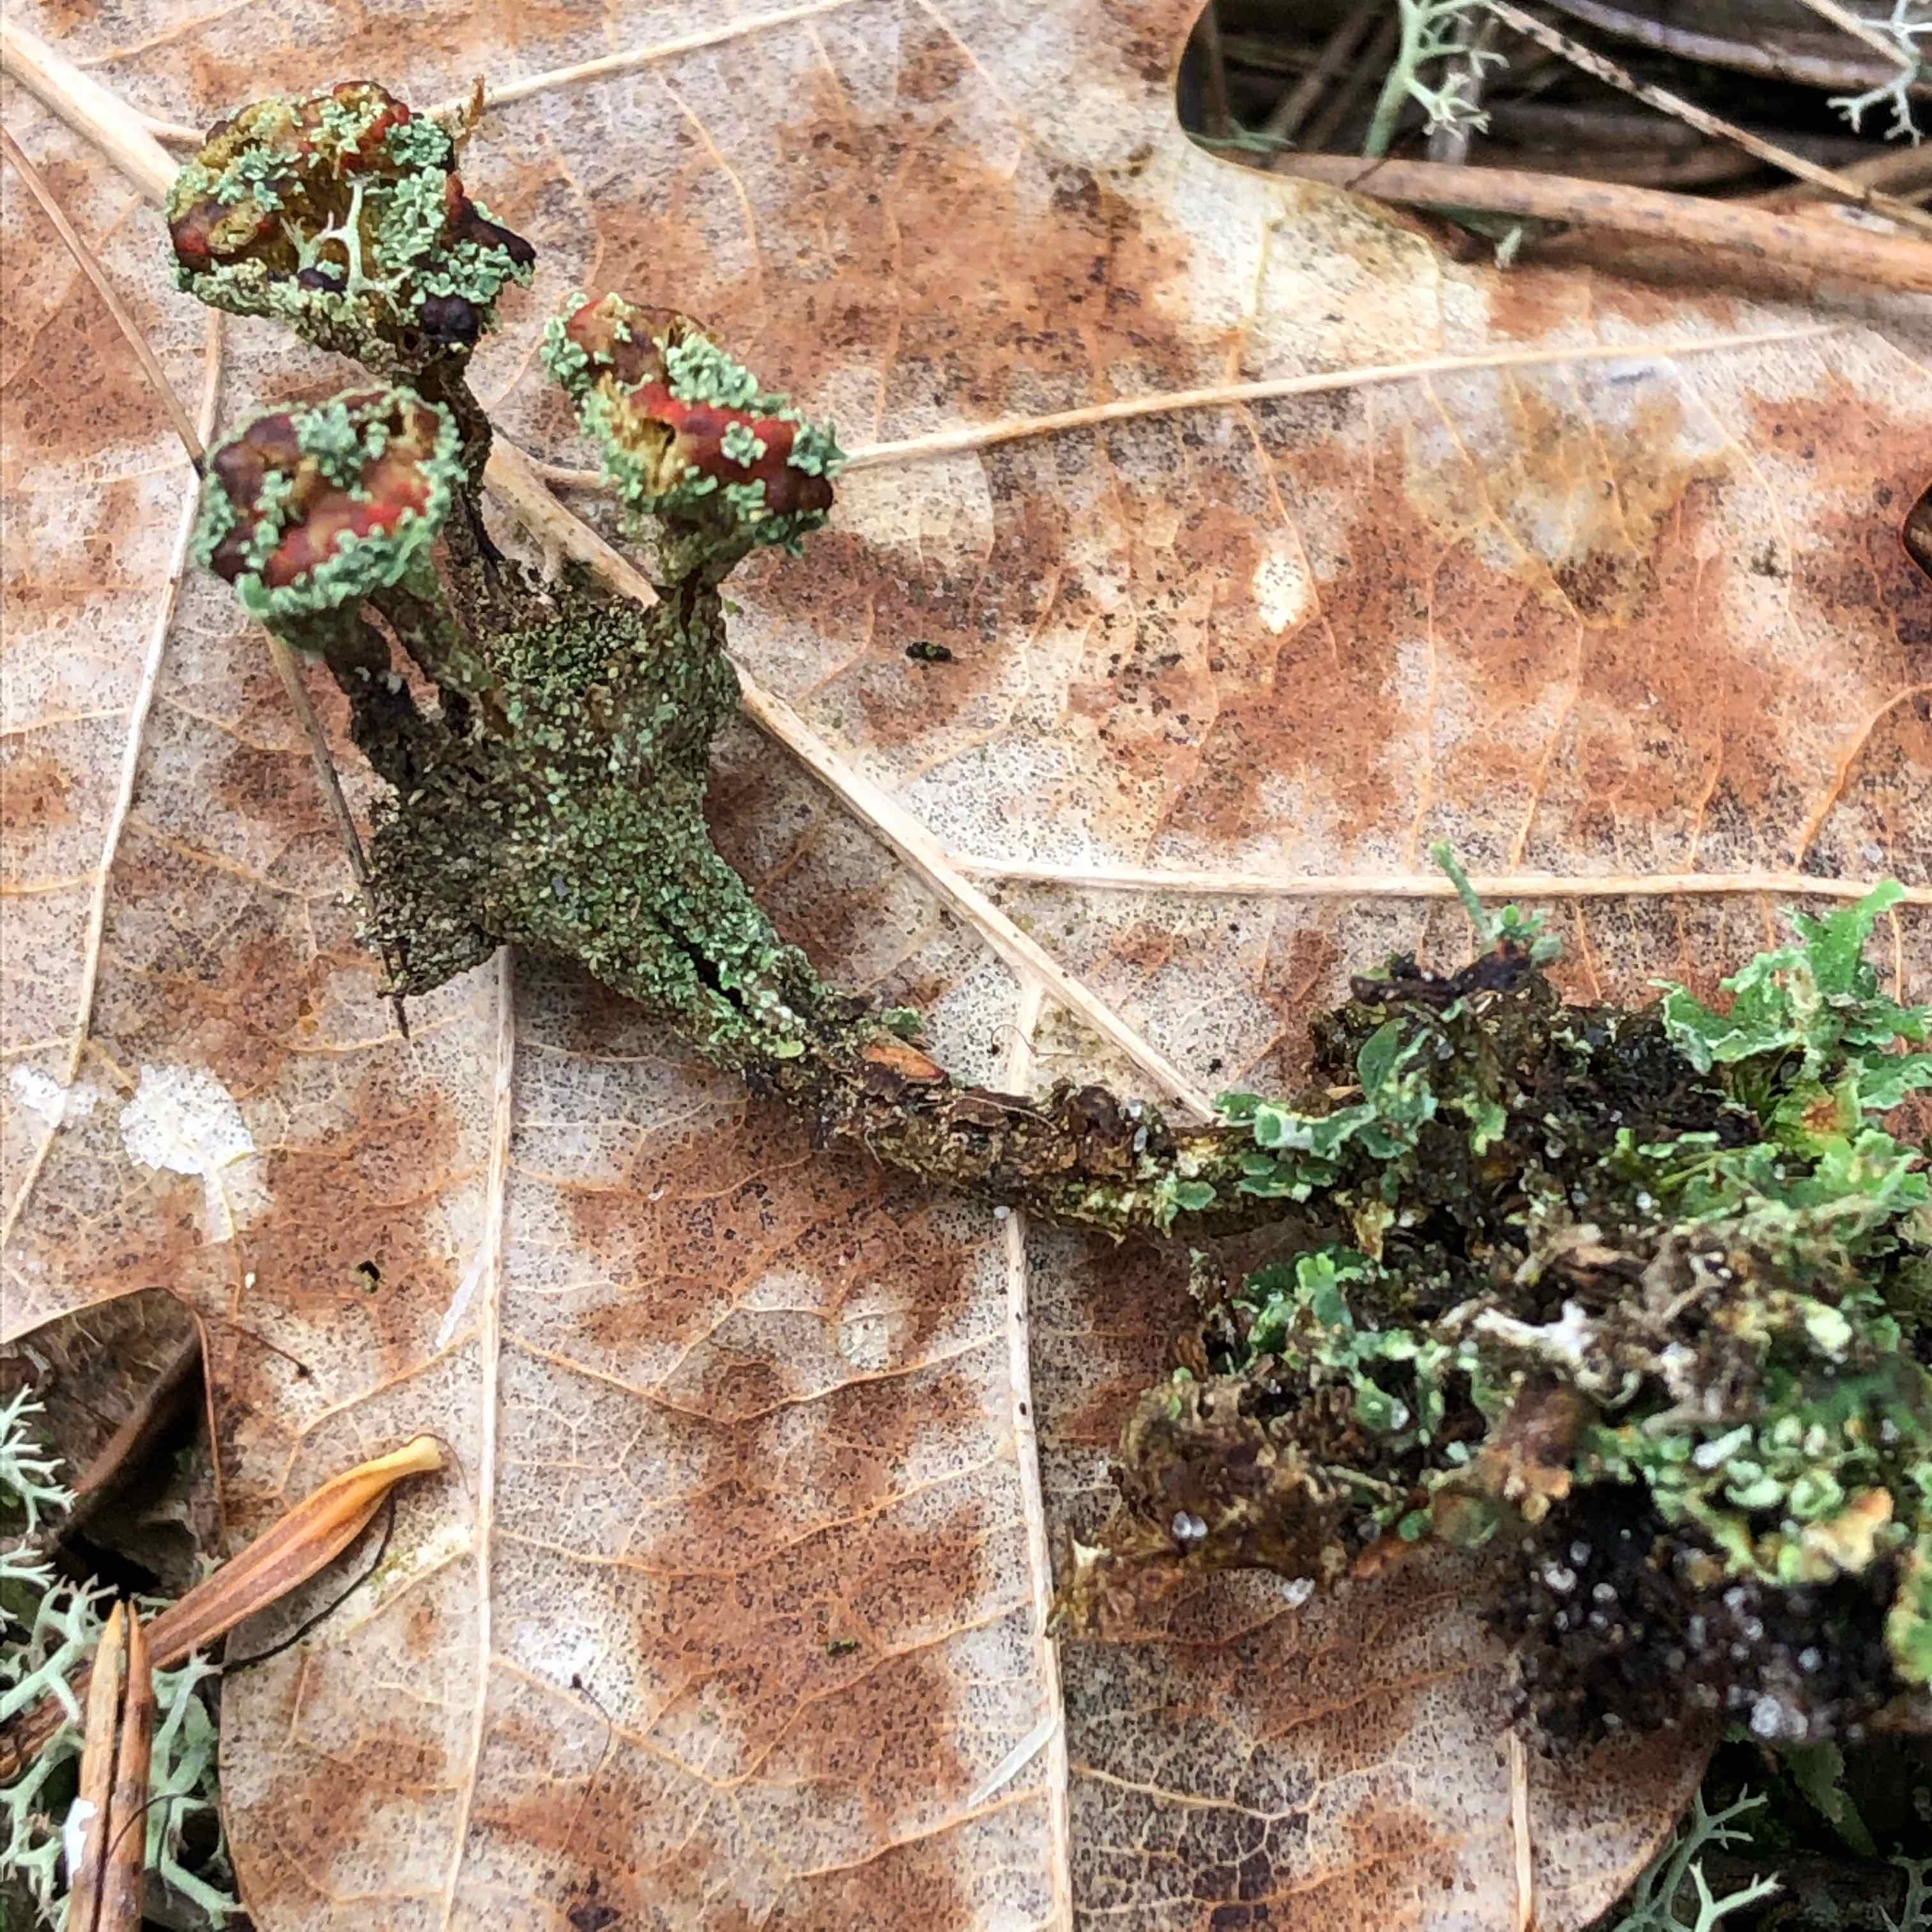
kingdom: Fungi
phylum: Ascomycota
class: Lecanoromycetes
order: Lecanorales
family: Cladoniaceae
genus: Cladonia
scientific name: Cladonia diversa
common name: rød bægerlav
